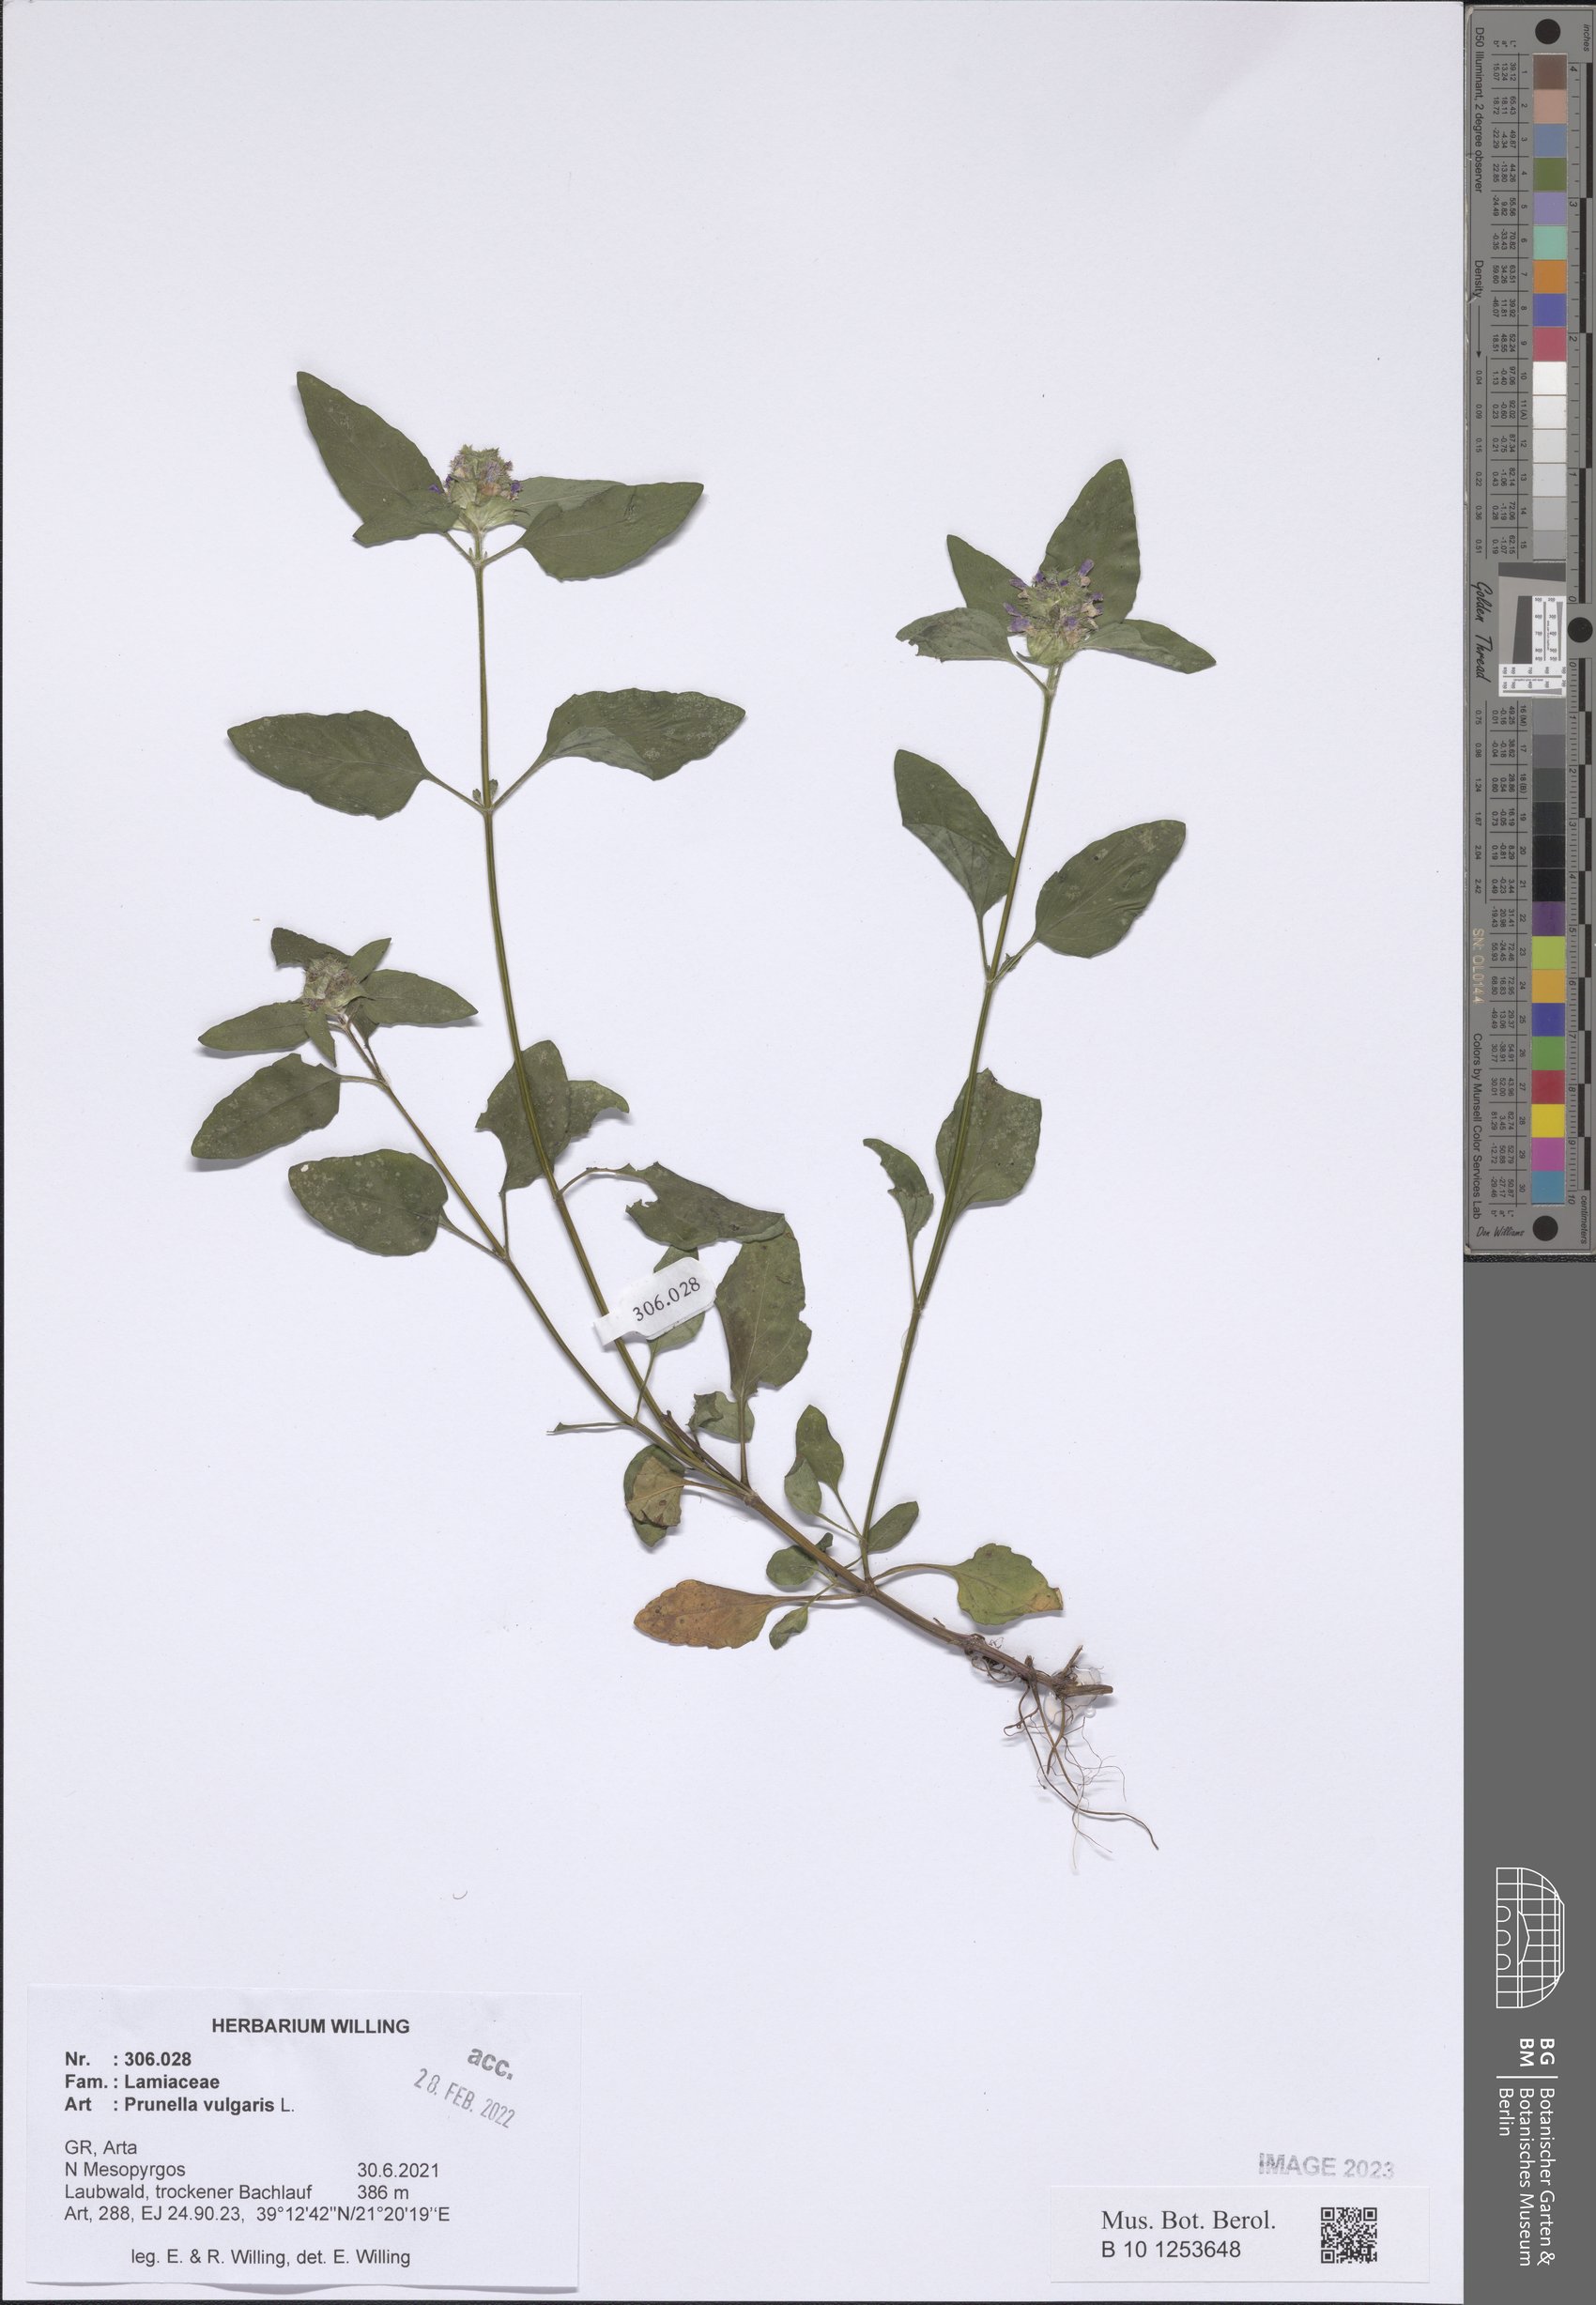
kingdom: Plantae
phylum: Tracheophyta
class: Magnoliopsida
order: Lamiales
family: Lamiaceae
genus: Prunella
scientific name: Prunella vulgaris
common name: Heal-all
